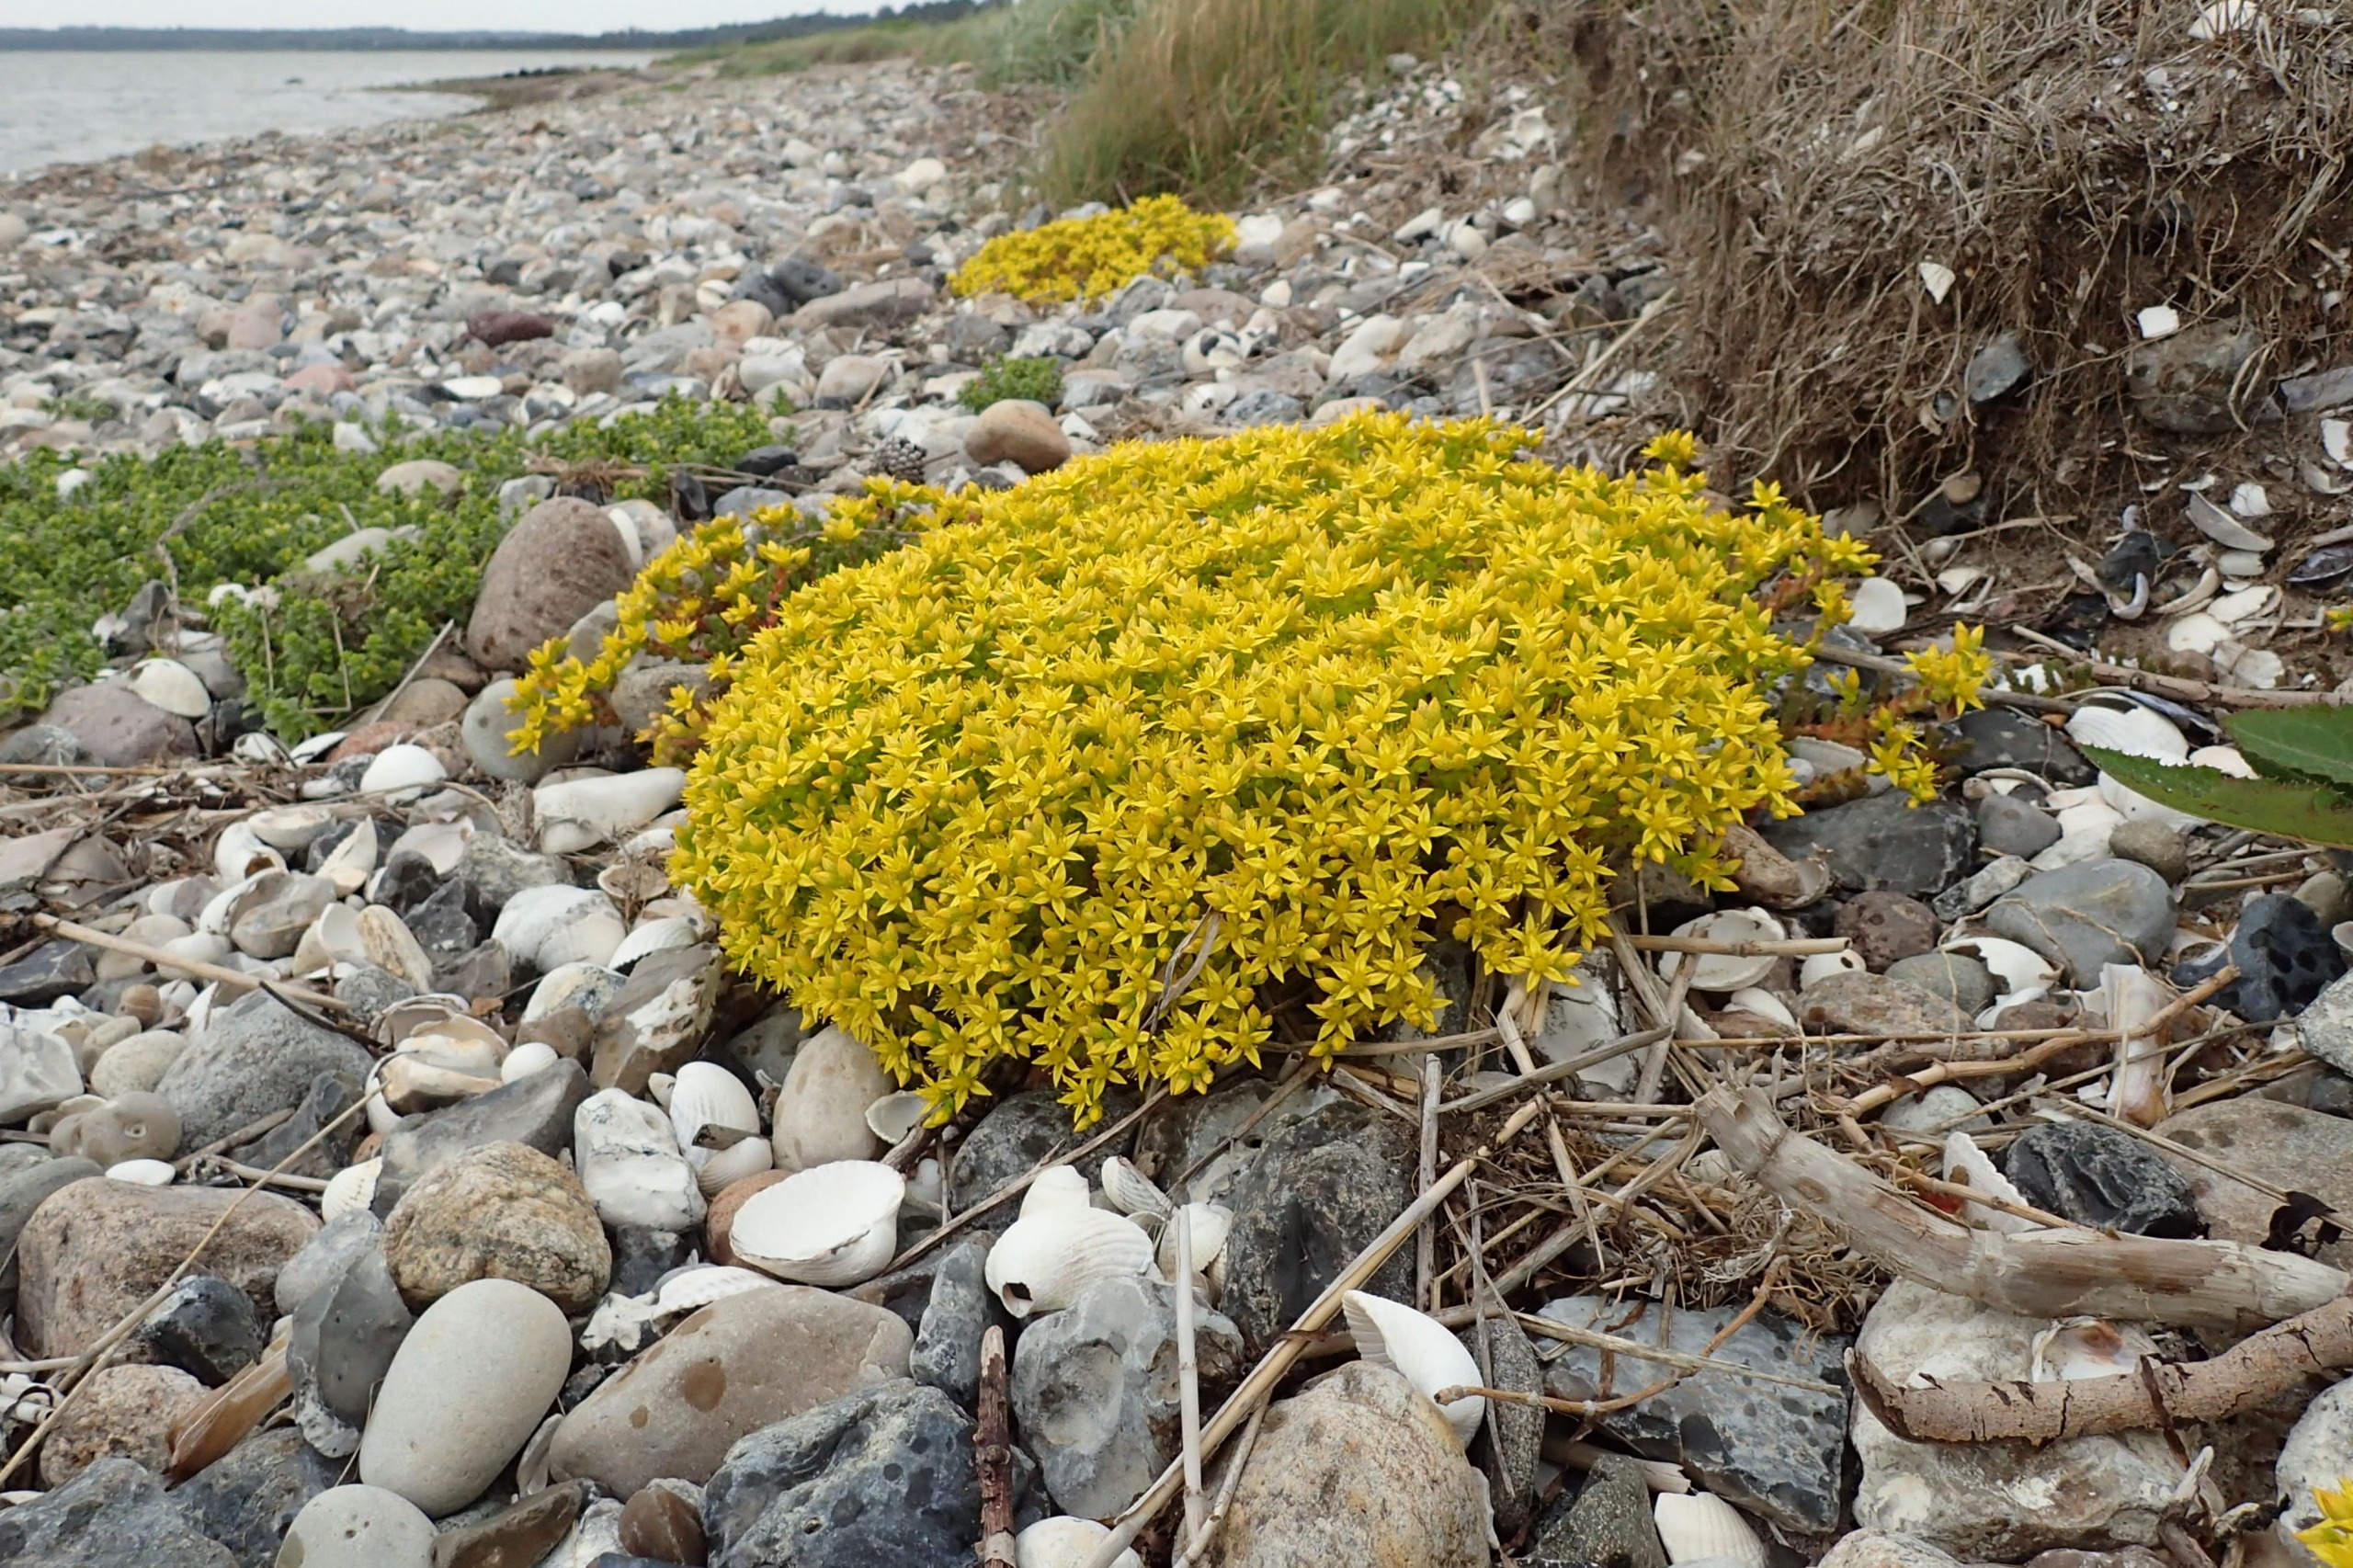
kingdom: Plantae
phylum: Tracheophyta
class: Magnoliopsida
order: Saxifragales
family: Crassulaceae
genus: Sedum
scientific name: Sedum acre
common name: Bidende stenurt
